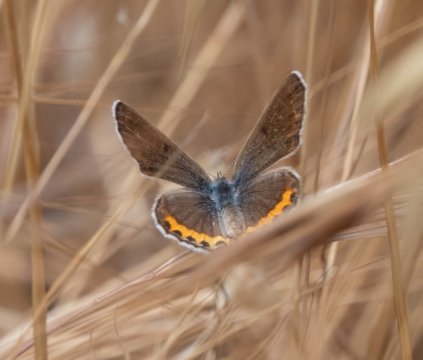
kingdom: Animalia
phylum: Arthropoda
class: Insecta
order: Lepidoptera
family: Lycaenidae
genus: Plebejus
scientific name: Plebejus acmon
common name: Acmon Blue
